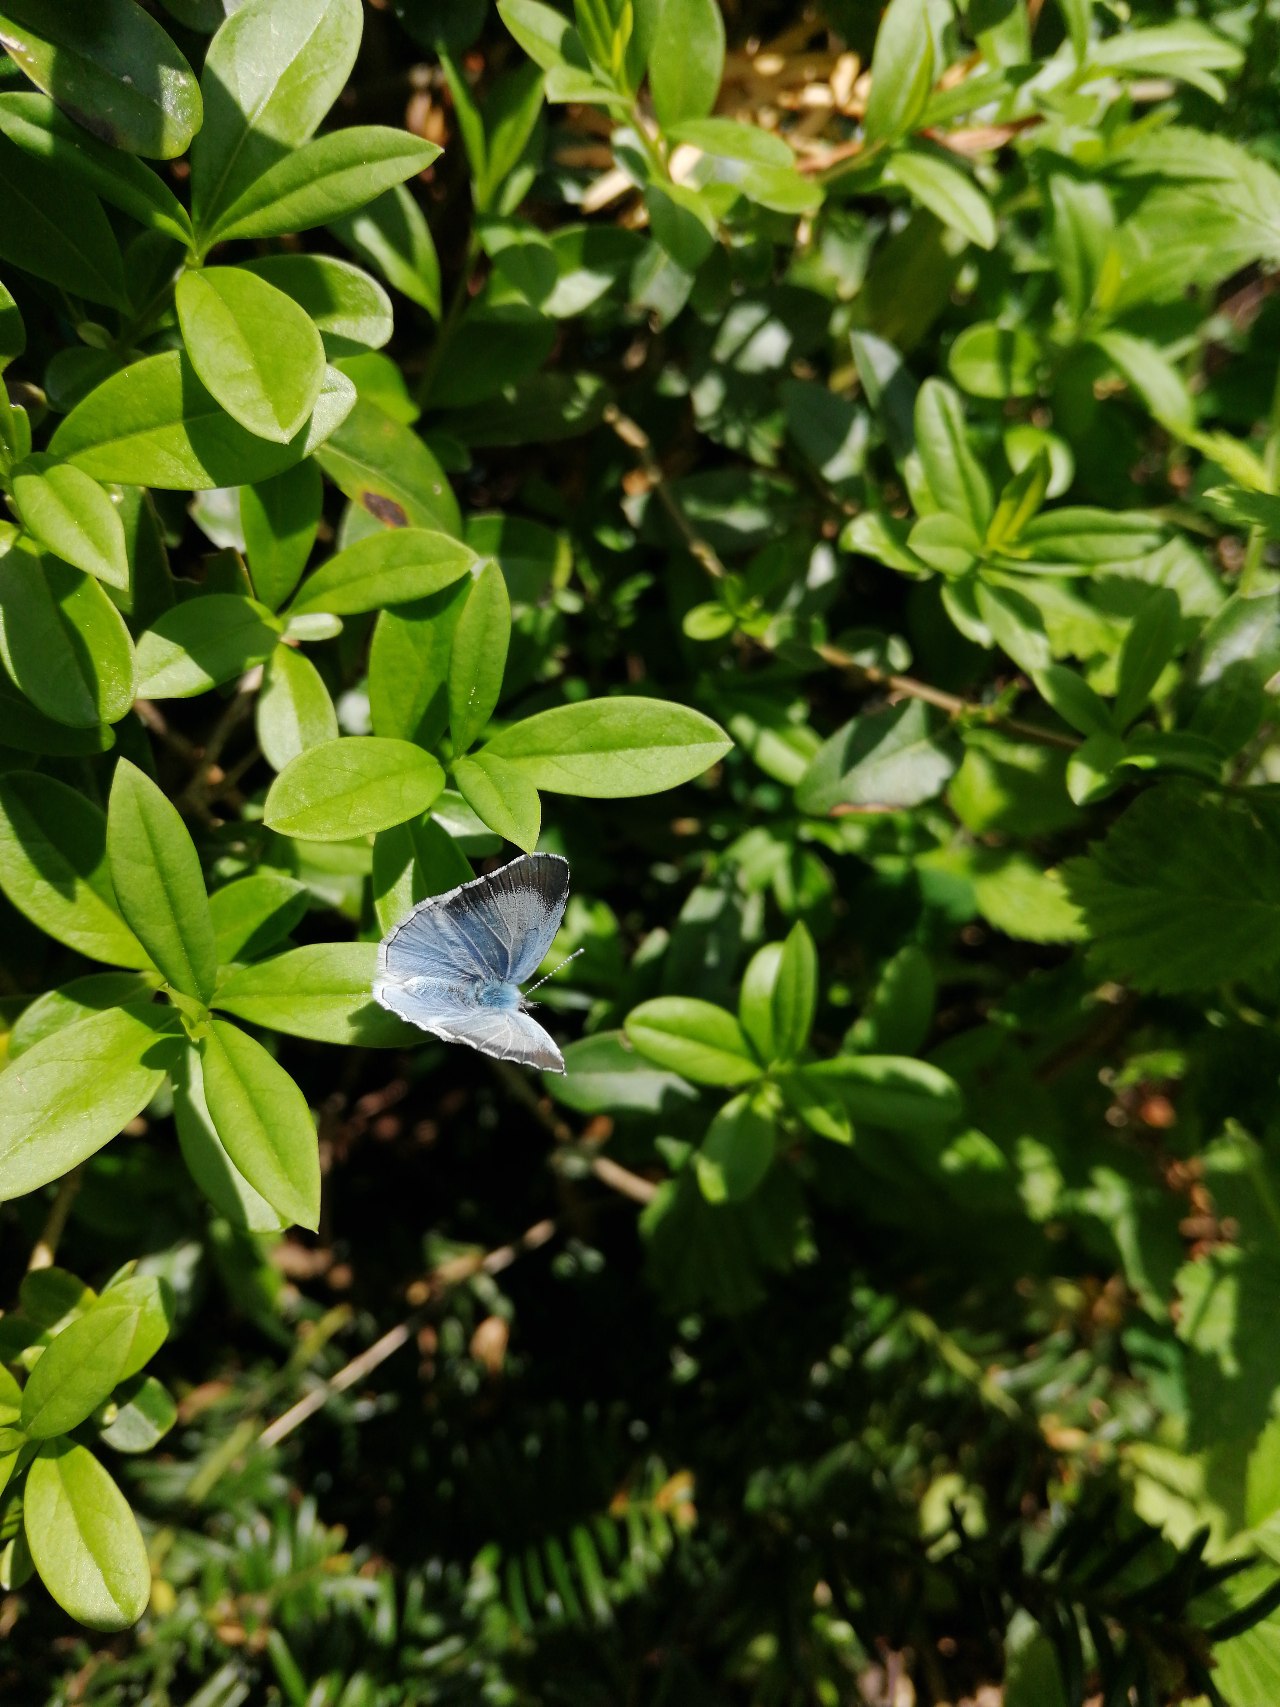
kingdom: Animalia
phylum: Arthropoda
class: Insecta
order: Lepidoptera
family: Lycaenidae
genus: Celastrina
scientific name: Celastrina argiolus
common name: Skovblåfugl
